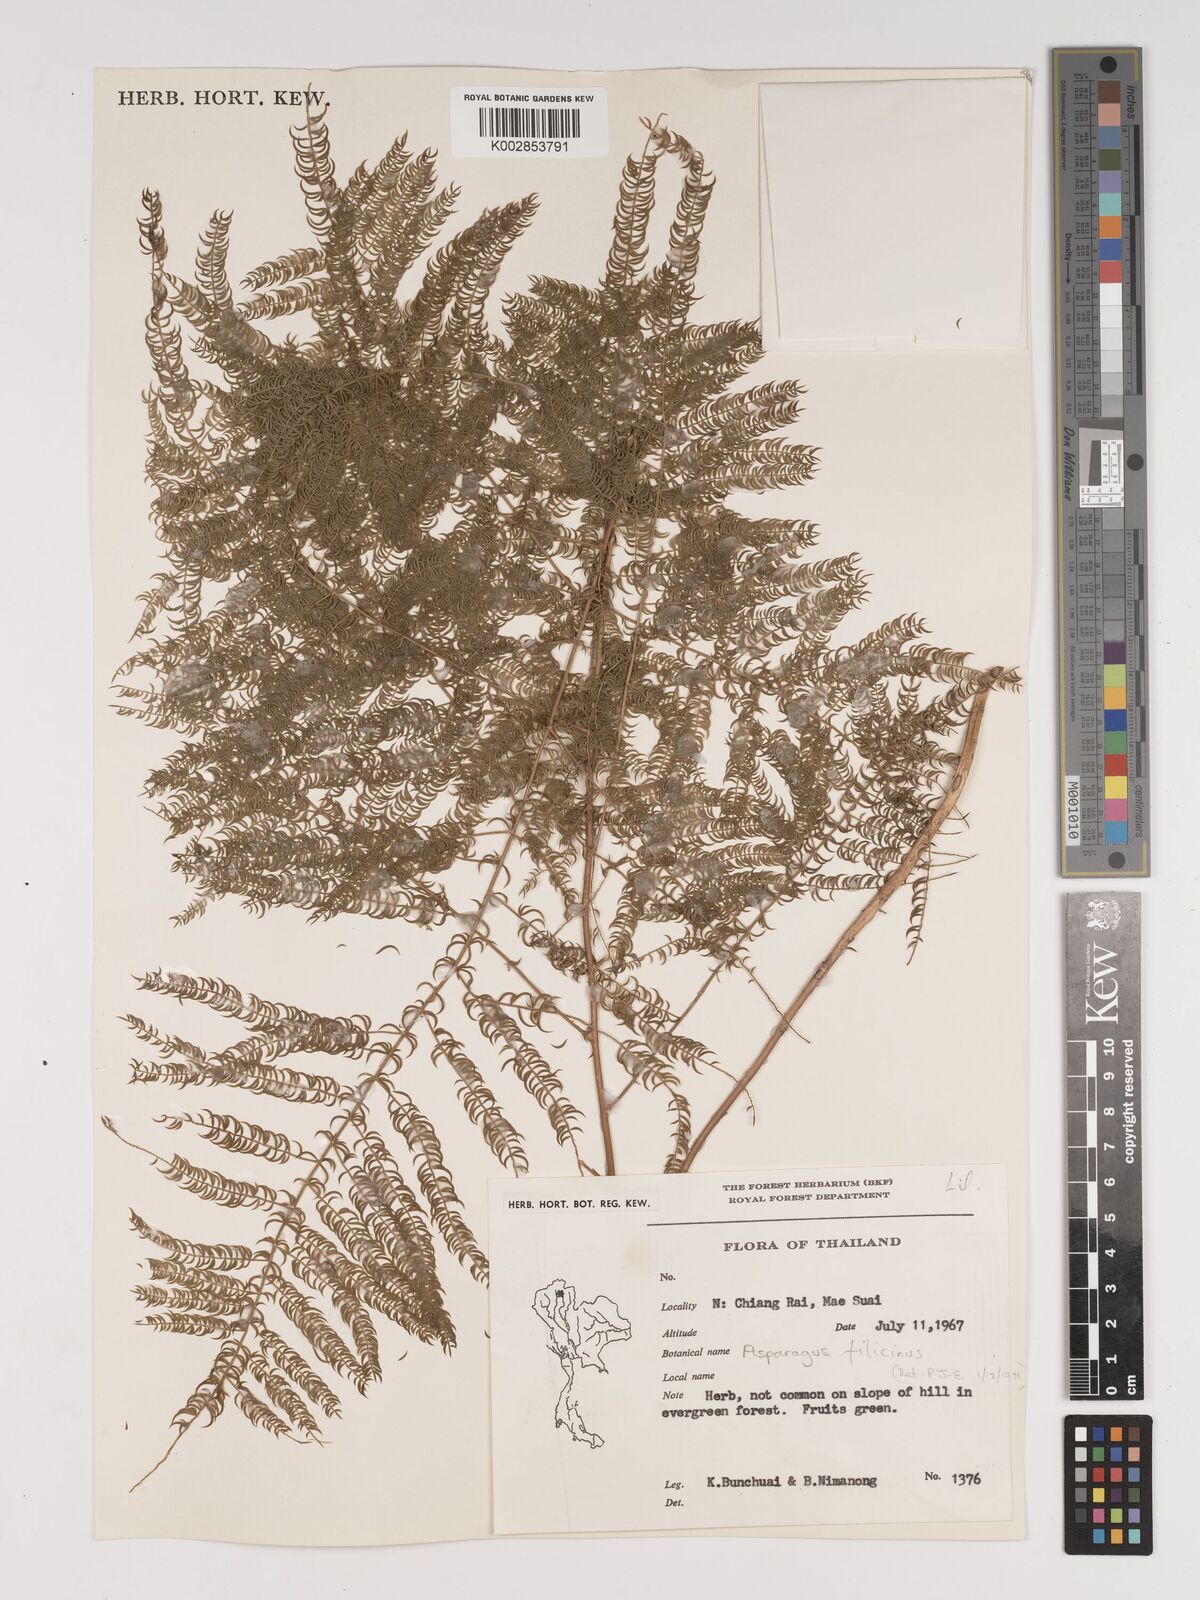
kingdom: Plantae
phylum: Tracheophyta
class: Liliopsida
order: Asparagales
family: Asparagaceae
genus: Asparagus
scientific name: Asparagus filicinus
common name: Fern asparagus
